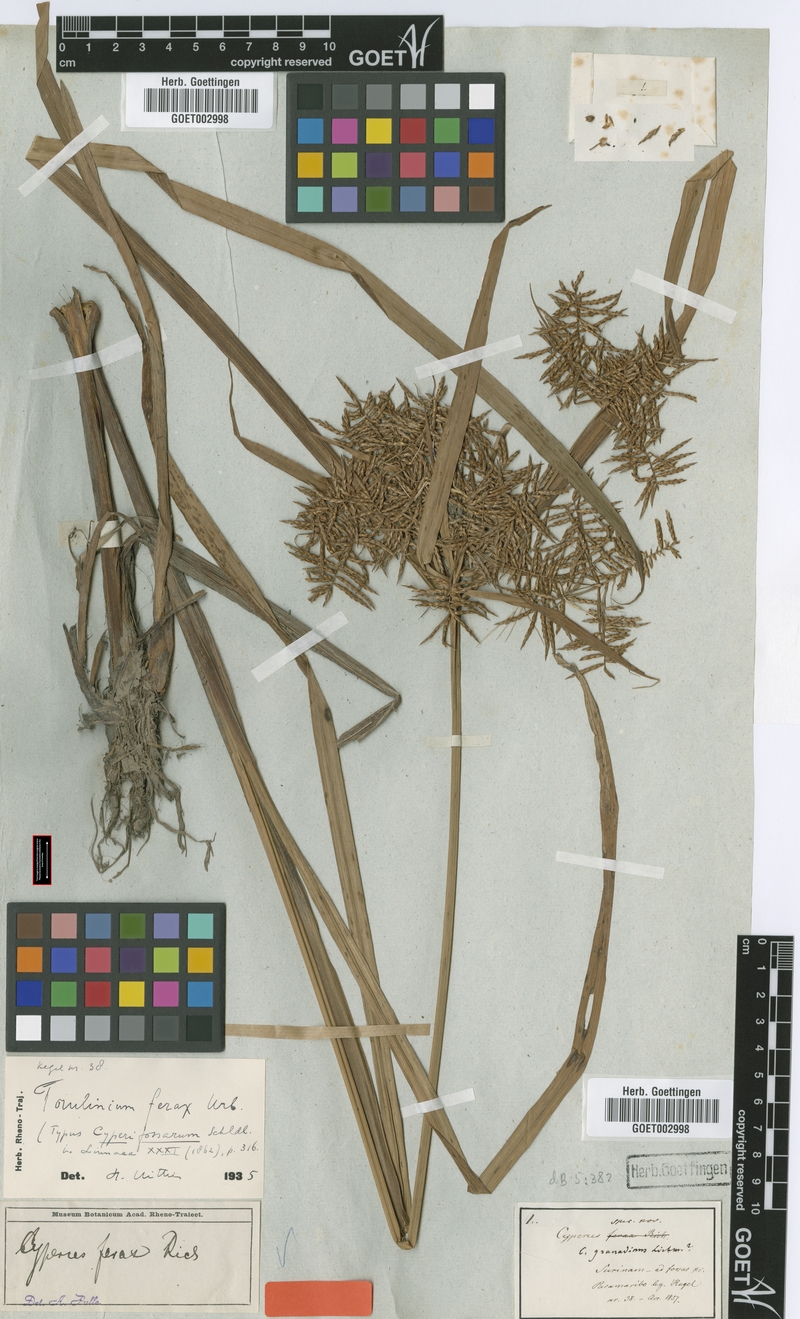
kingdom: Plantae
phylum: Tracheophyta
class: Liliopsida
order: Poales
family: Cyperaceae
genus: Cyperus
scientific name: Cyperus ferax
